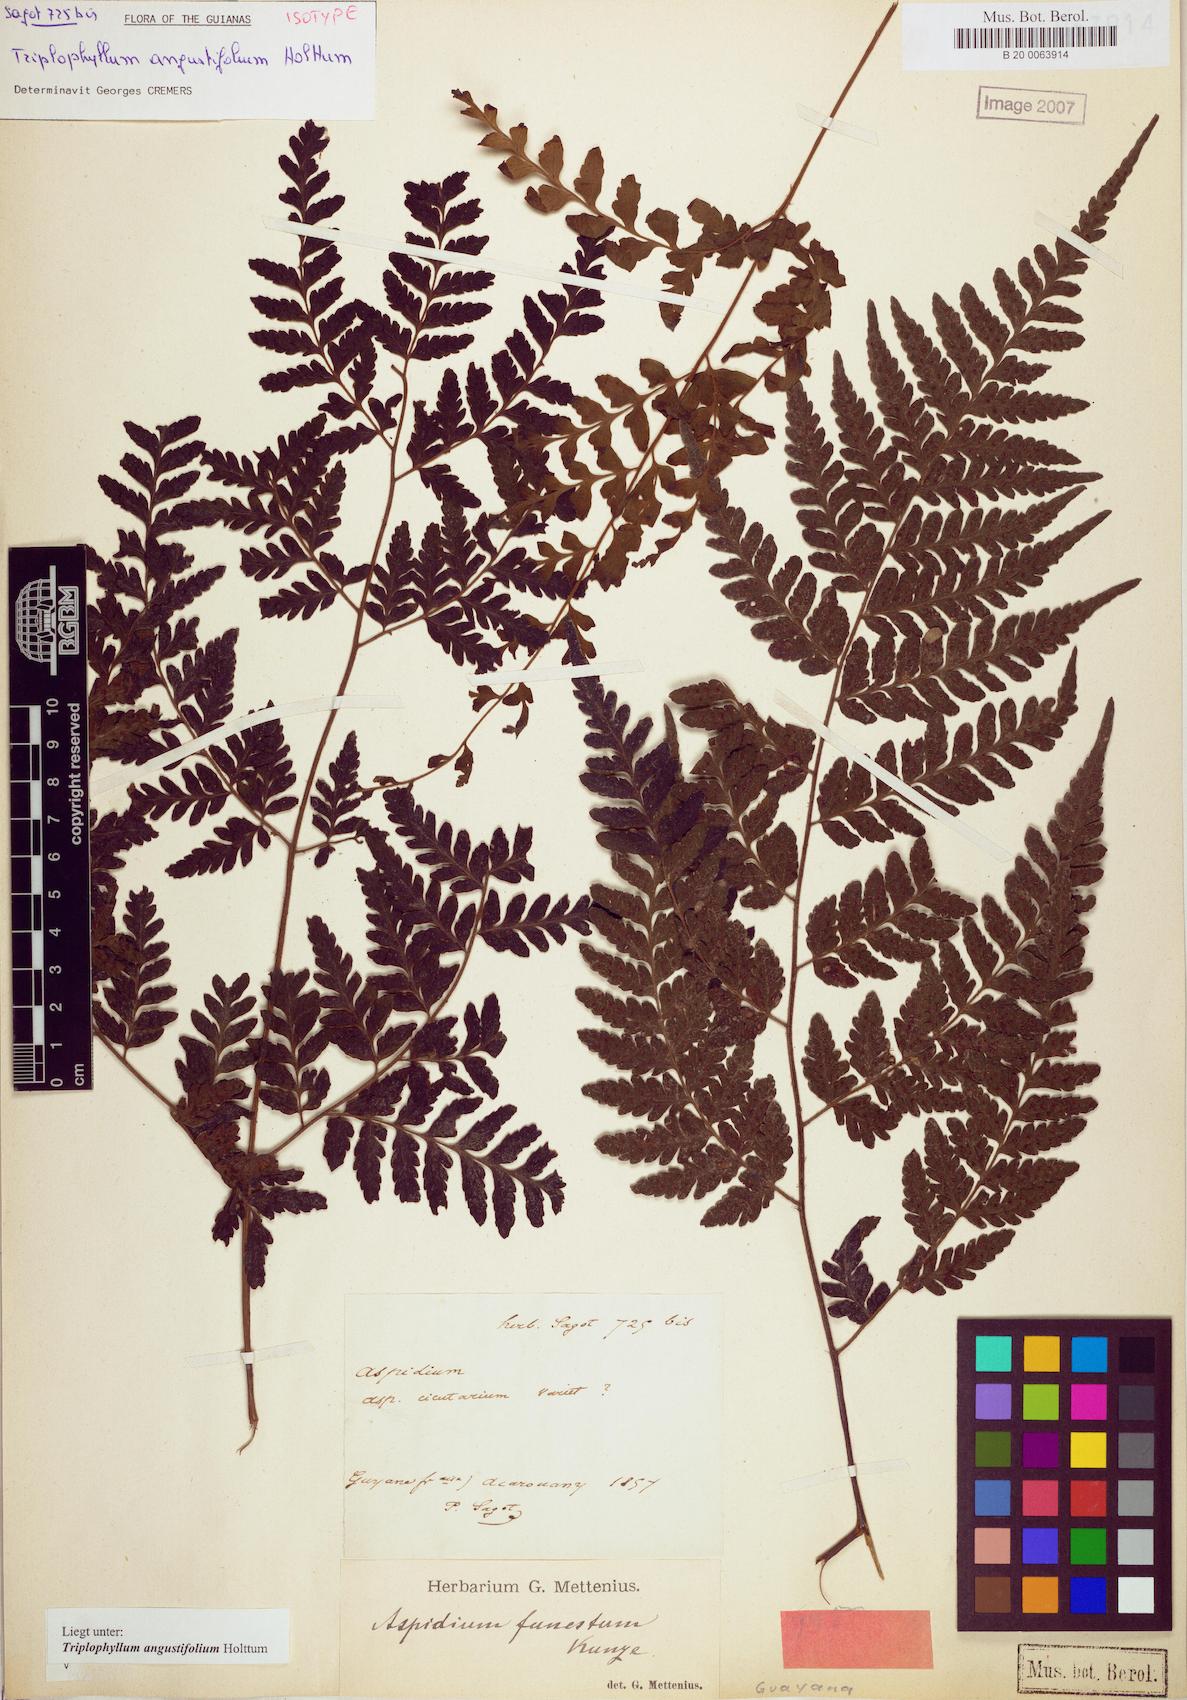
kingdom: Plantae
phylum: Tracheophyta
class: Polypodiopsida
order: Polypodiales
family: Tectariaceae
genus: Triplophyllum
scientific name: Triplophyllum angustifolium
